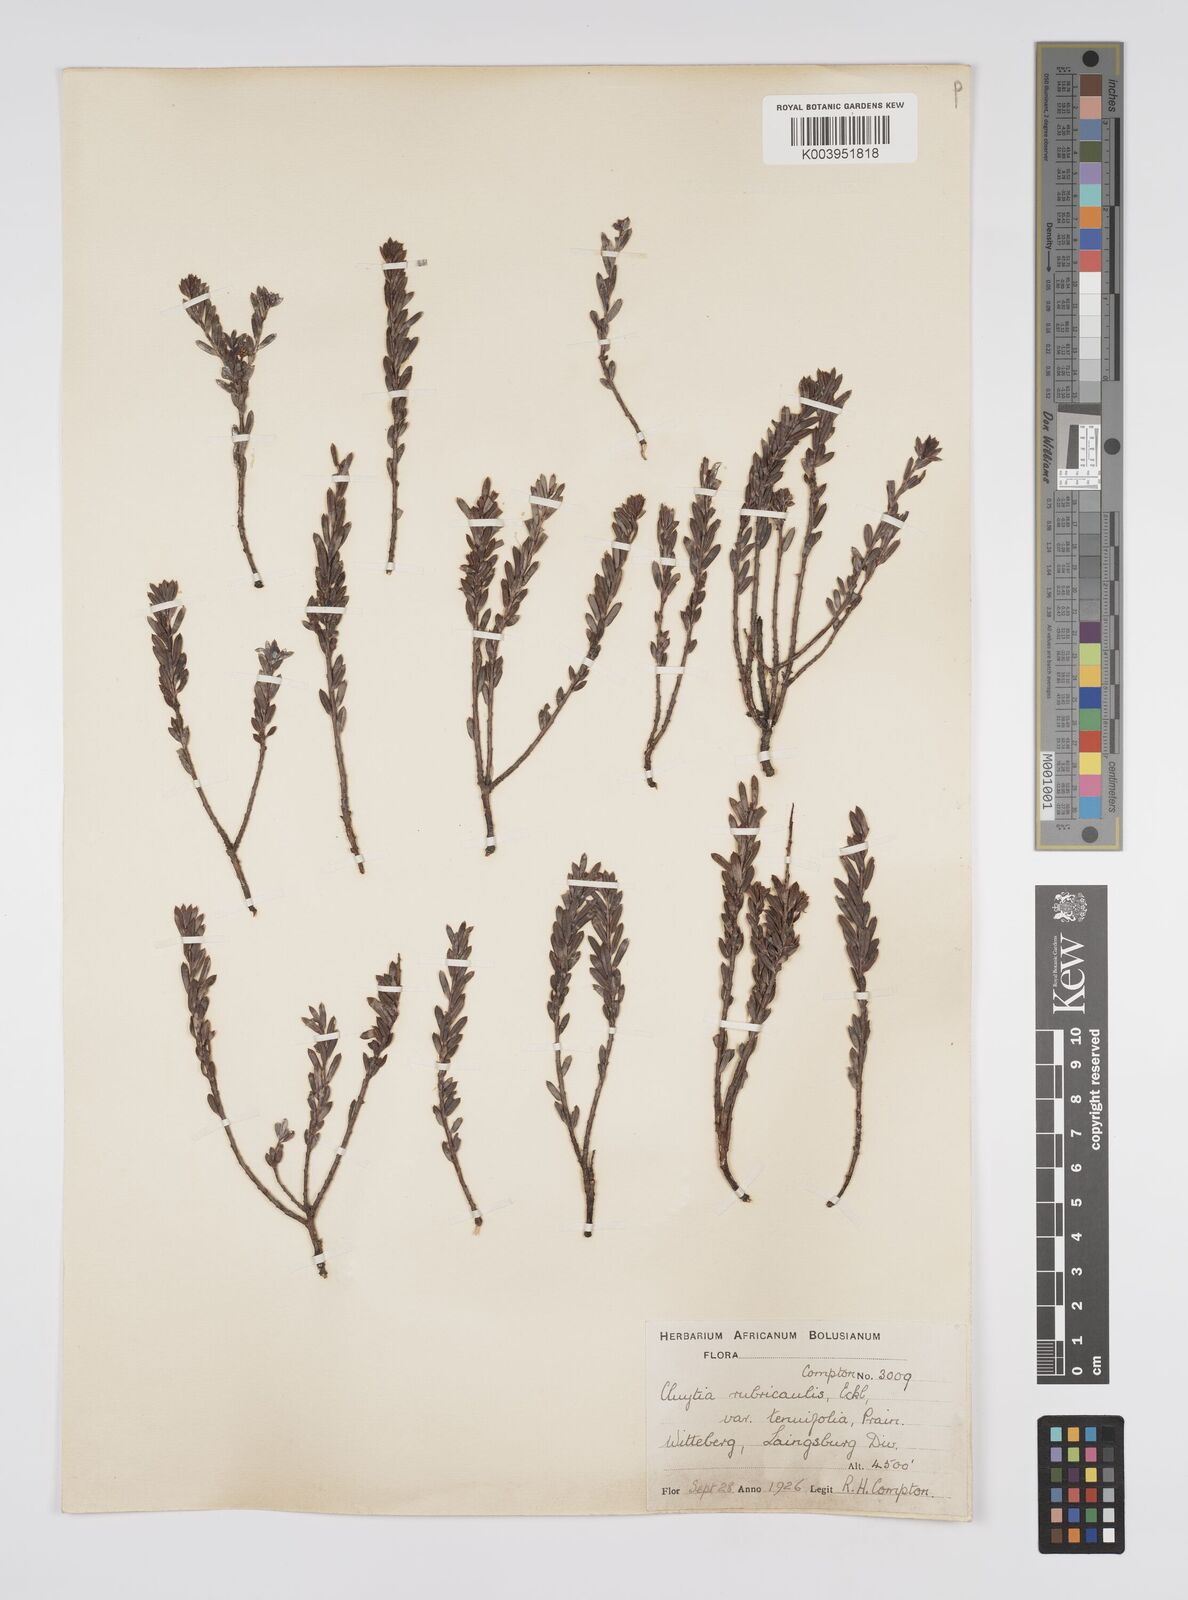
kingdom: Plantae
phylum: Tracheophyta
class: Magnoliopsida
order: Malpighiales
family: Peraceae
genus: Clutia
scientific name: Clutia rubricaulis
